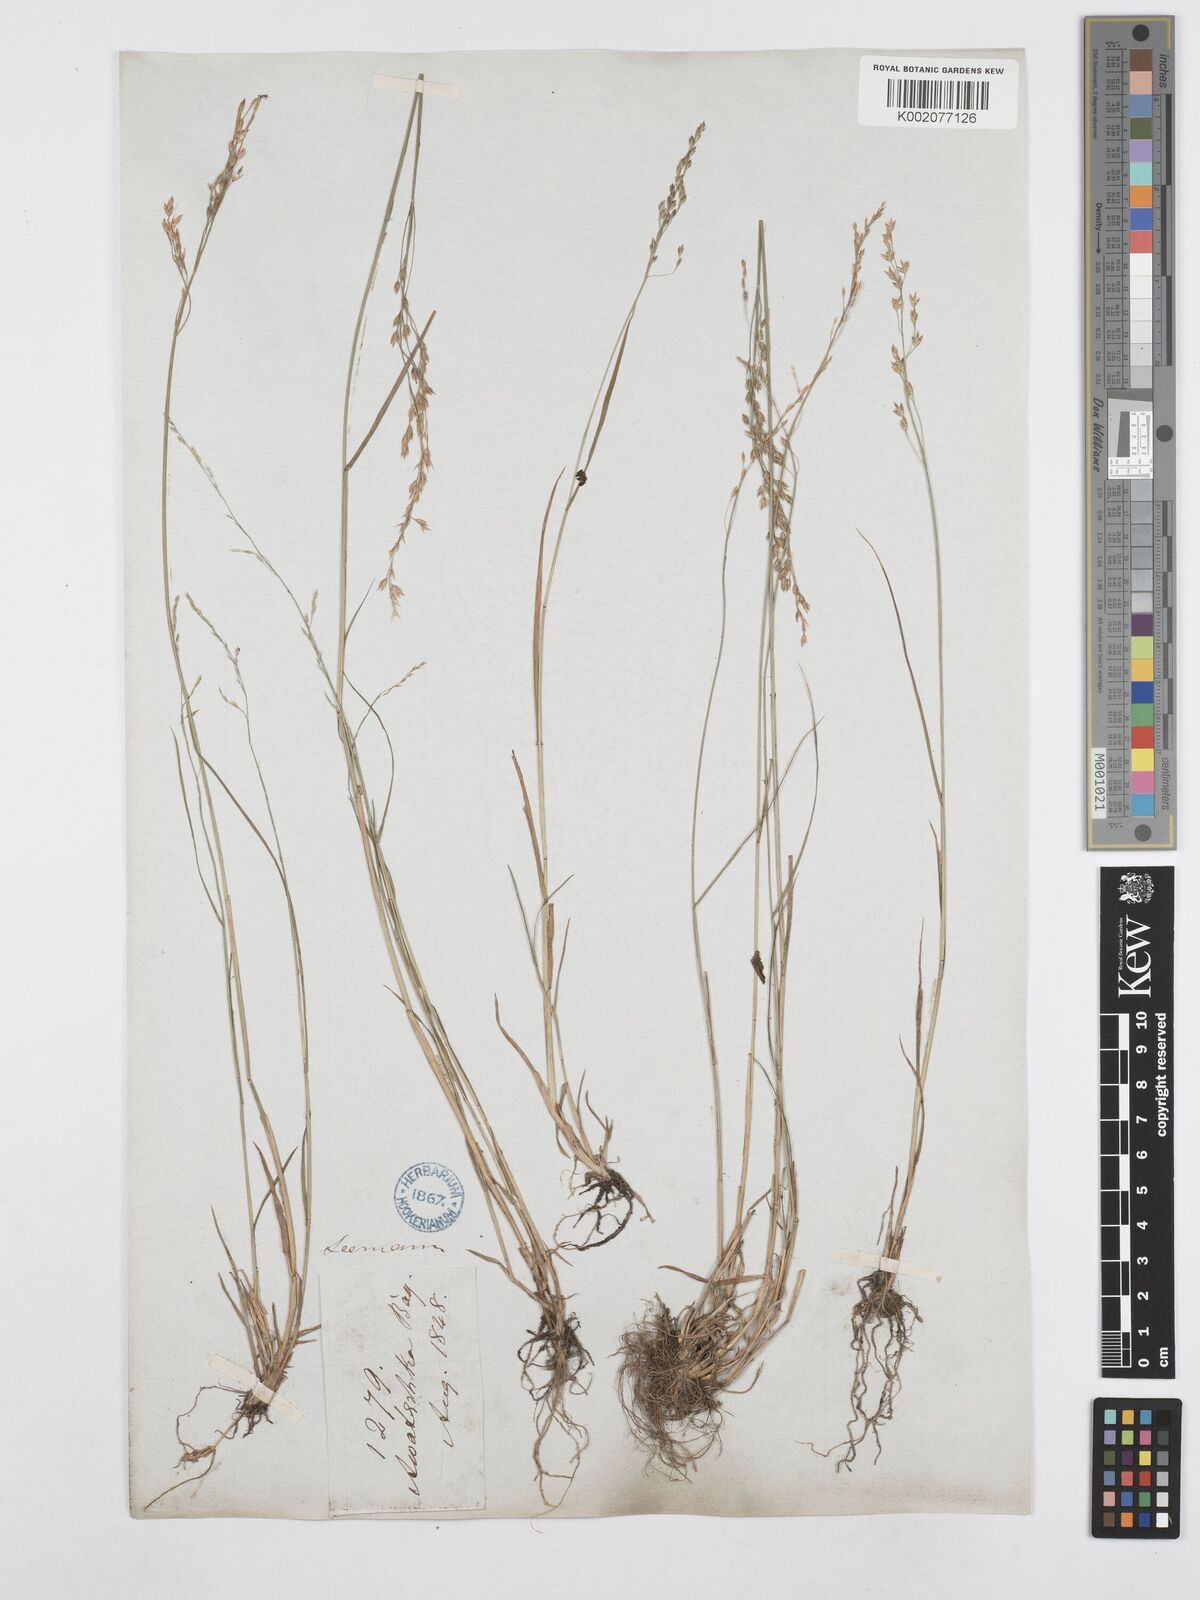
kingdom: Plantae
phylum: Tracheophyta
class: Liliopsida
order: Poales
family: Poaceae
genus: Poa
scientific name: Poa palustris
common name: Swamp meadow-grass
